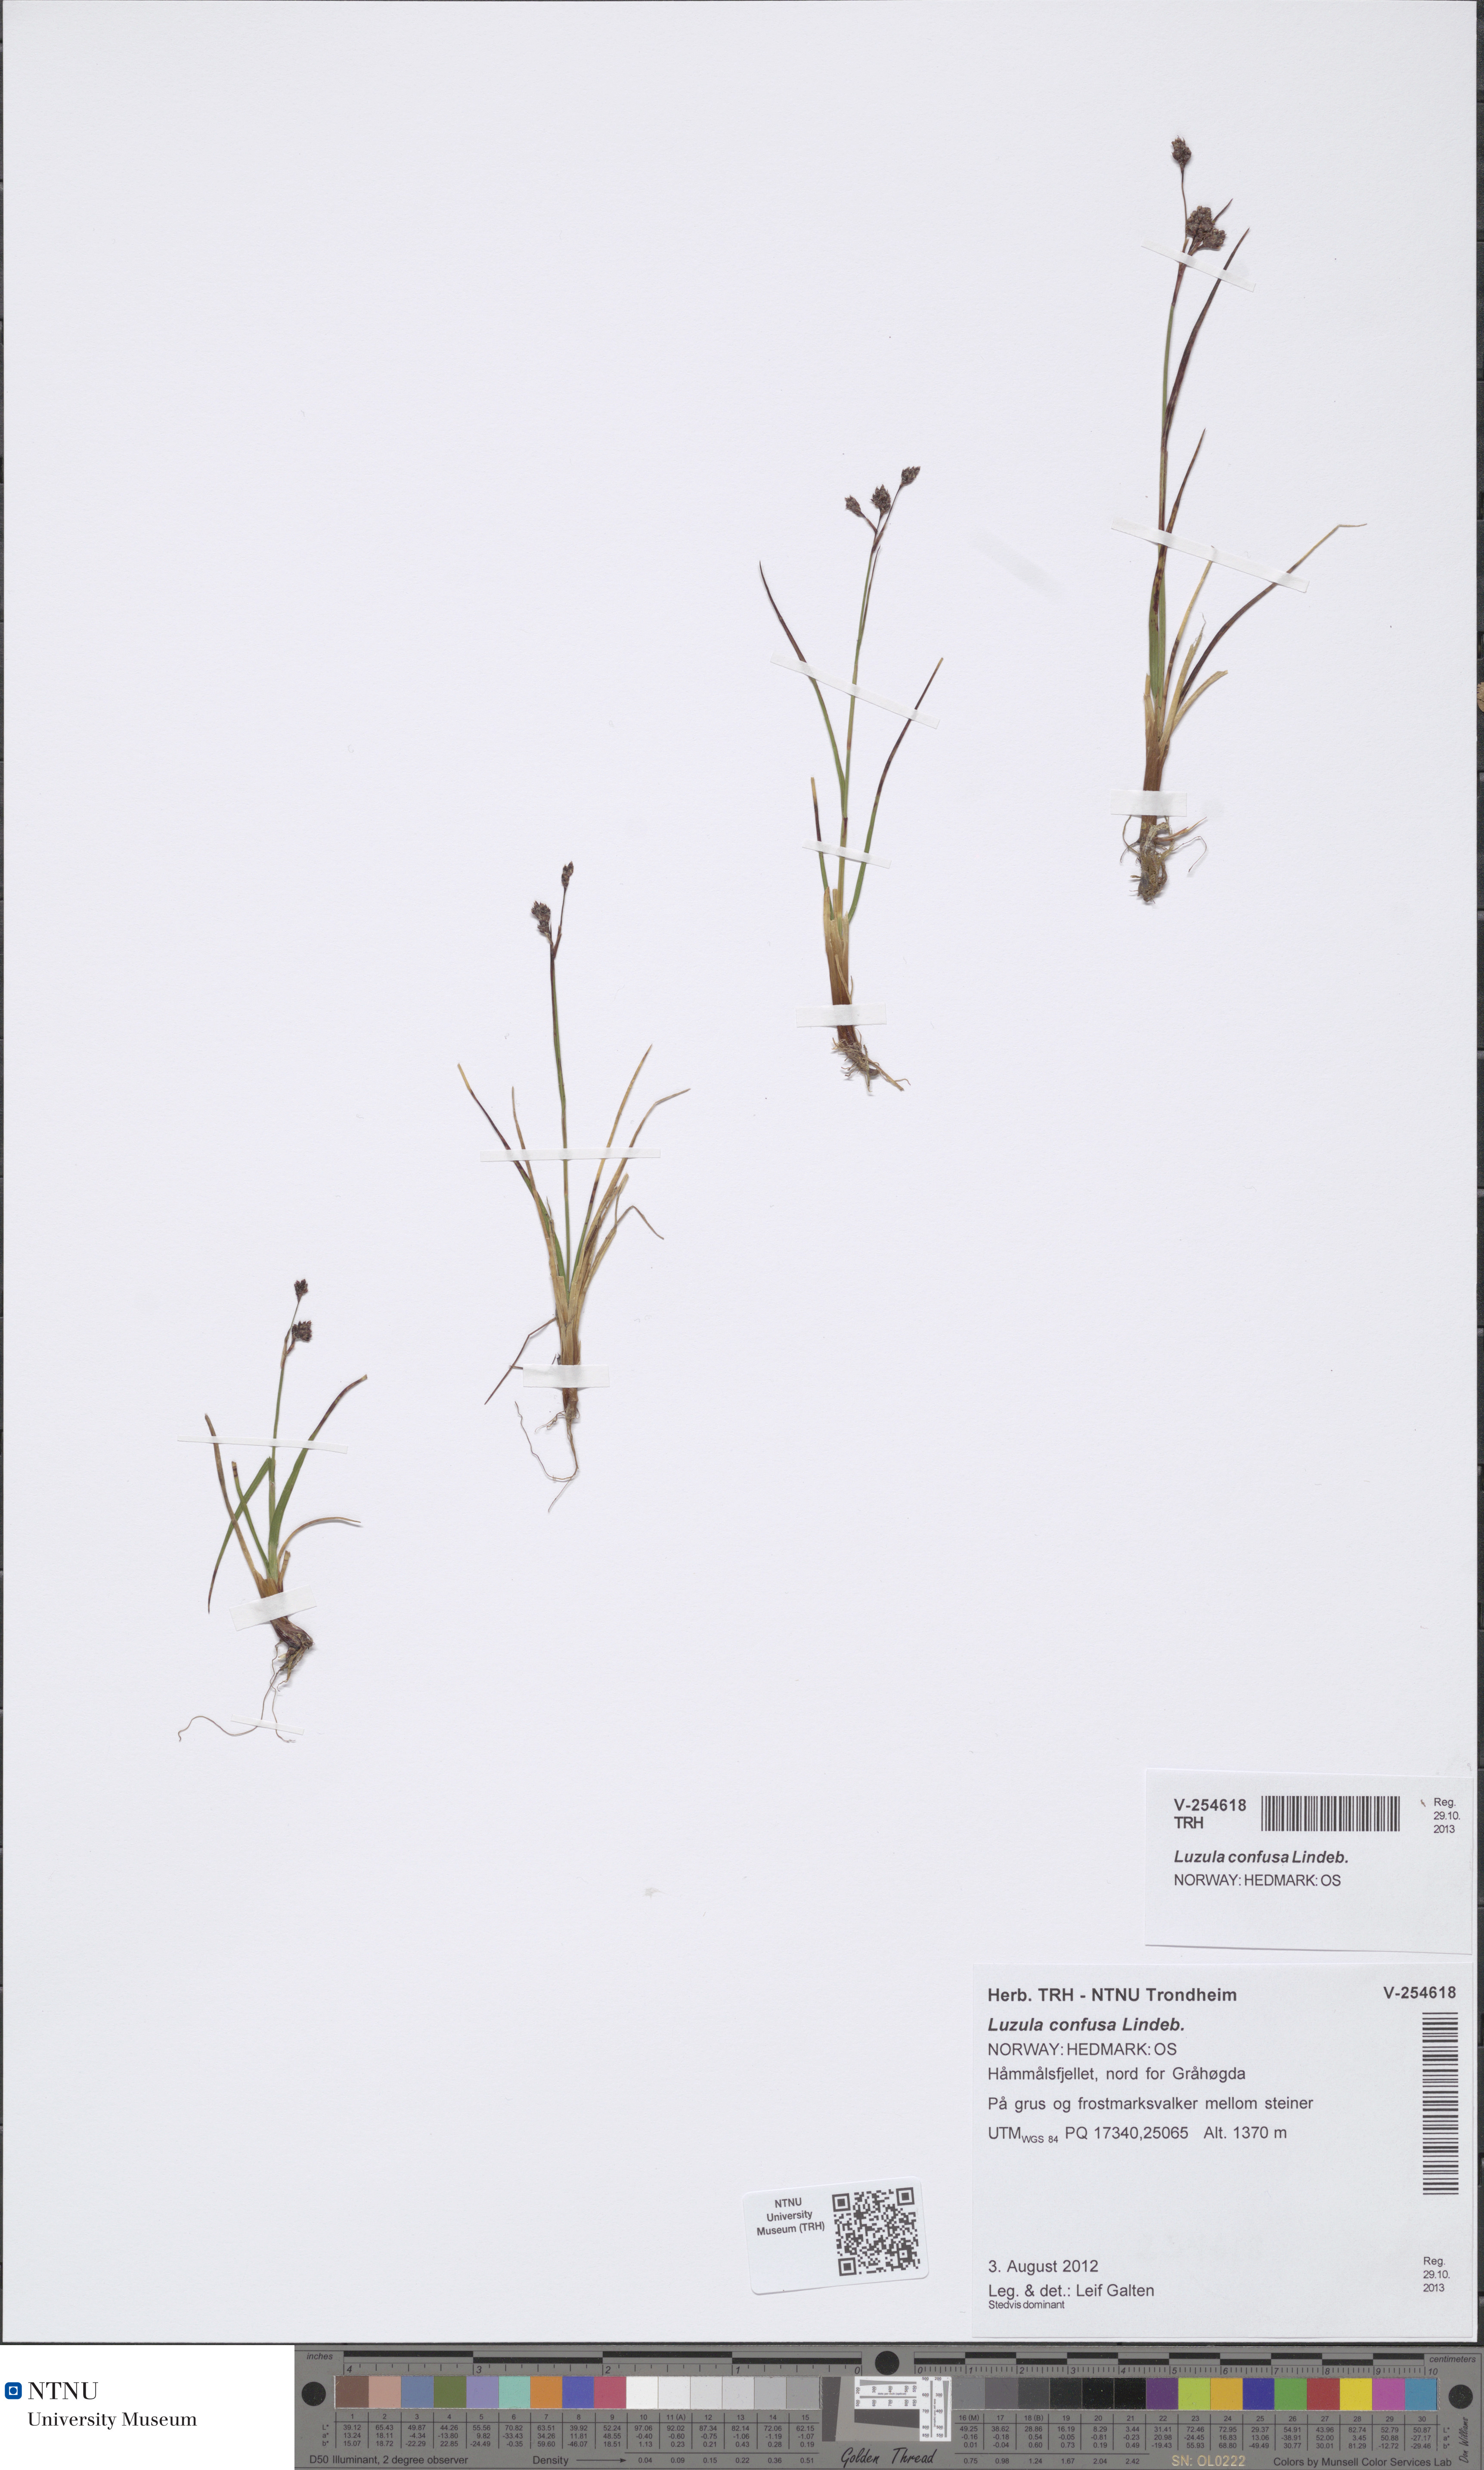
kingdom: Plantae
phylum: Tracheophyta
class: Liliopsida
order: Poales
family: Juncaceae
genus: Luzula
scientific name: Luzula confusa
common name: Northern wood rush
